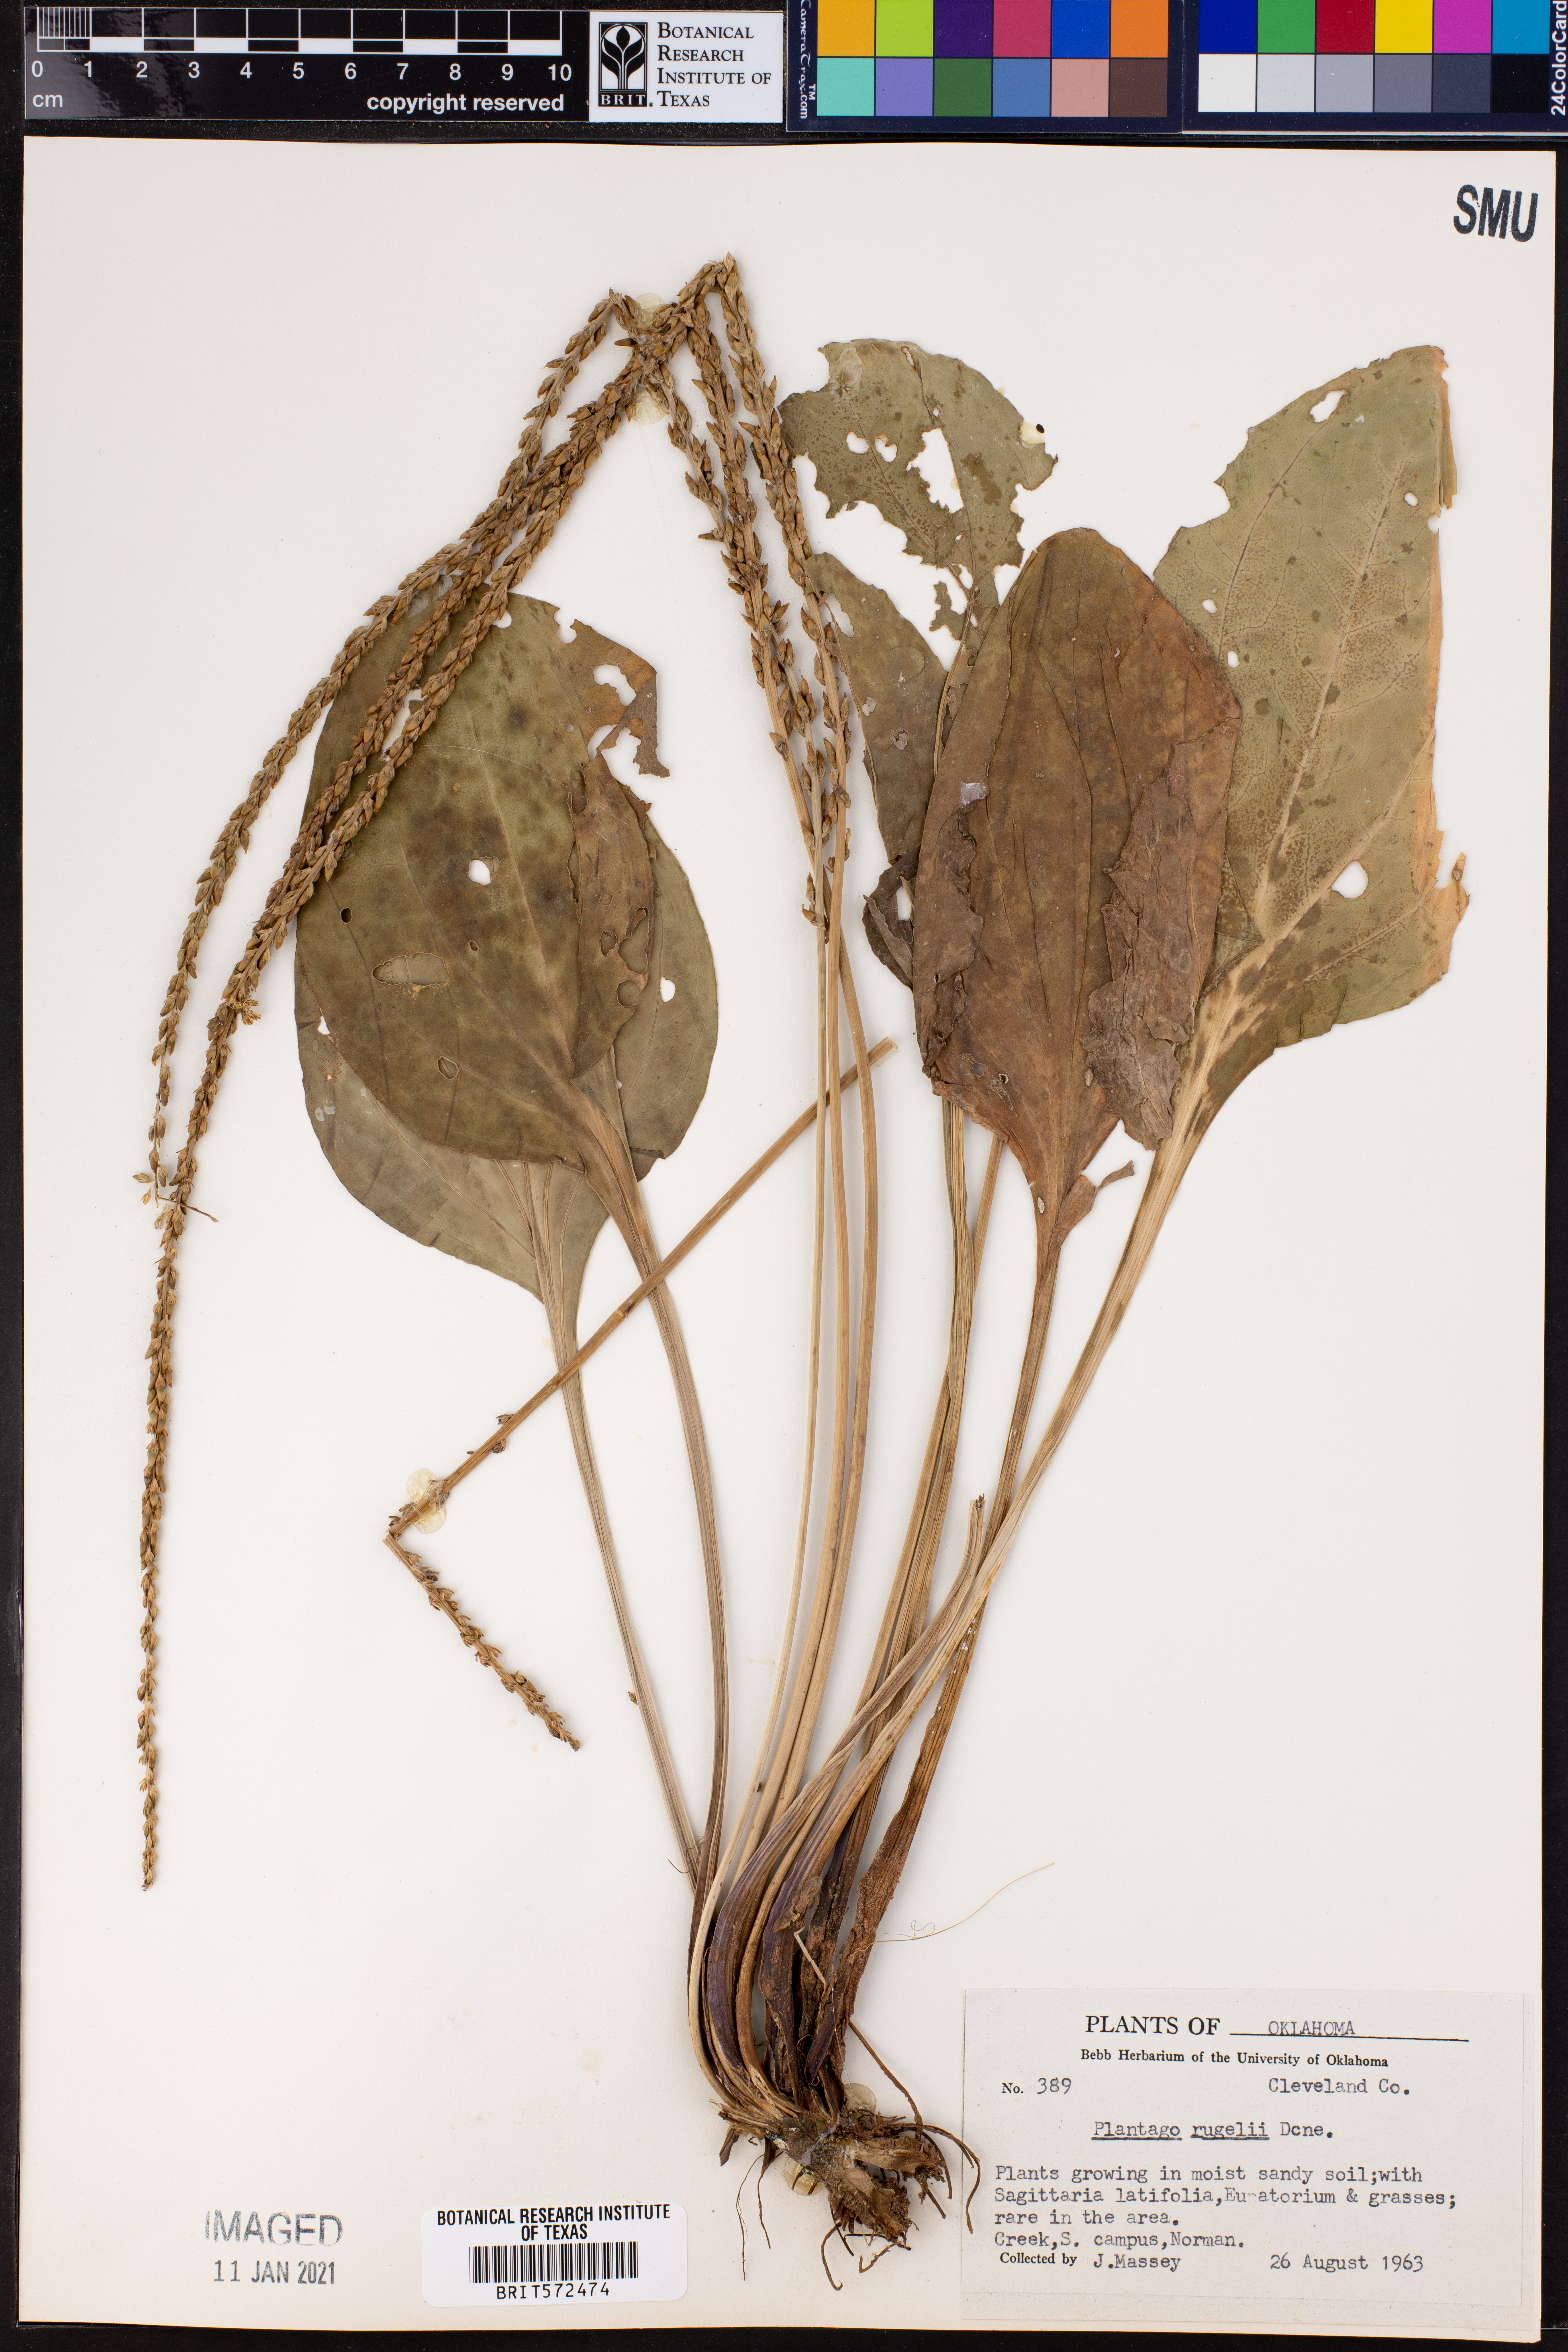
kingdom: Plantae
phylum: Tracheophyta
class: Magnoliopsida
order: Lamiales
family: Plantaginaceae
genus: Plantago
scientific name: Plantago rugelii
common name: American plantain
